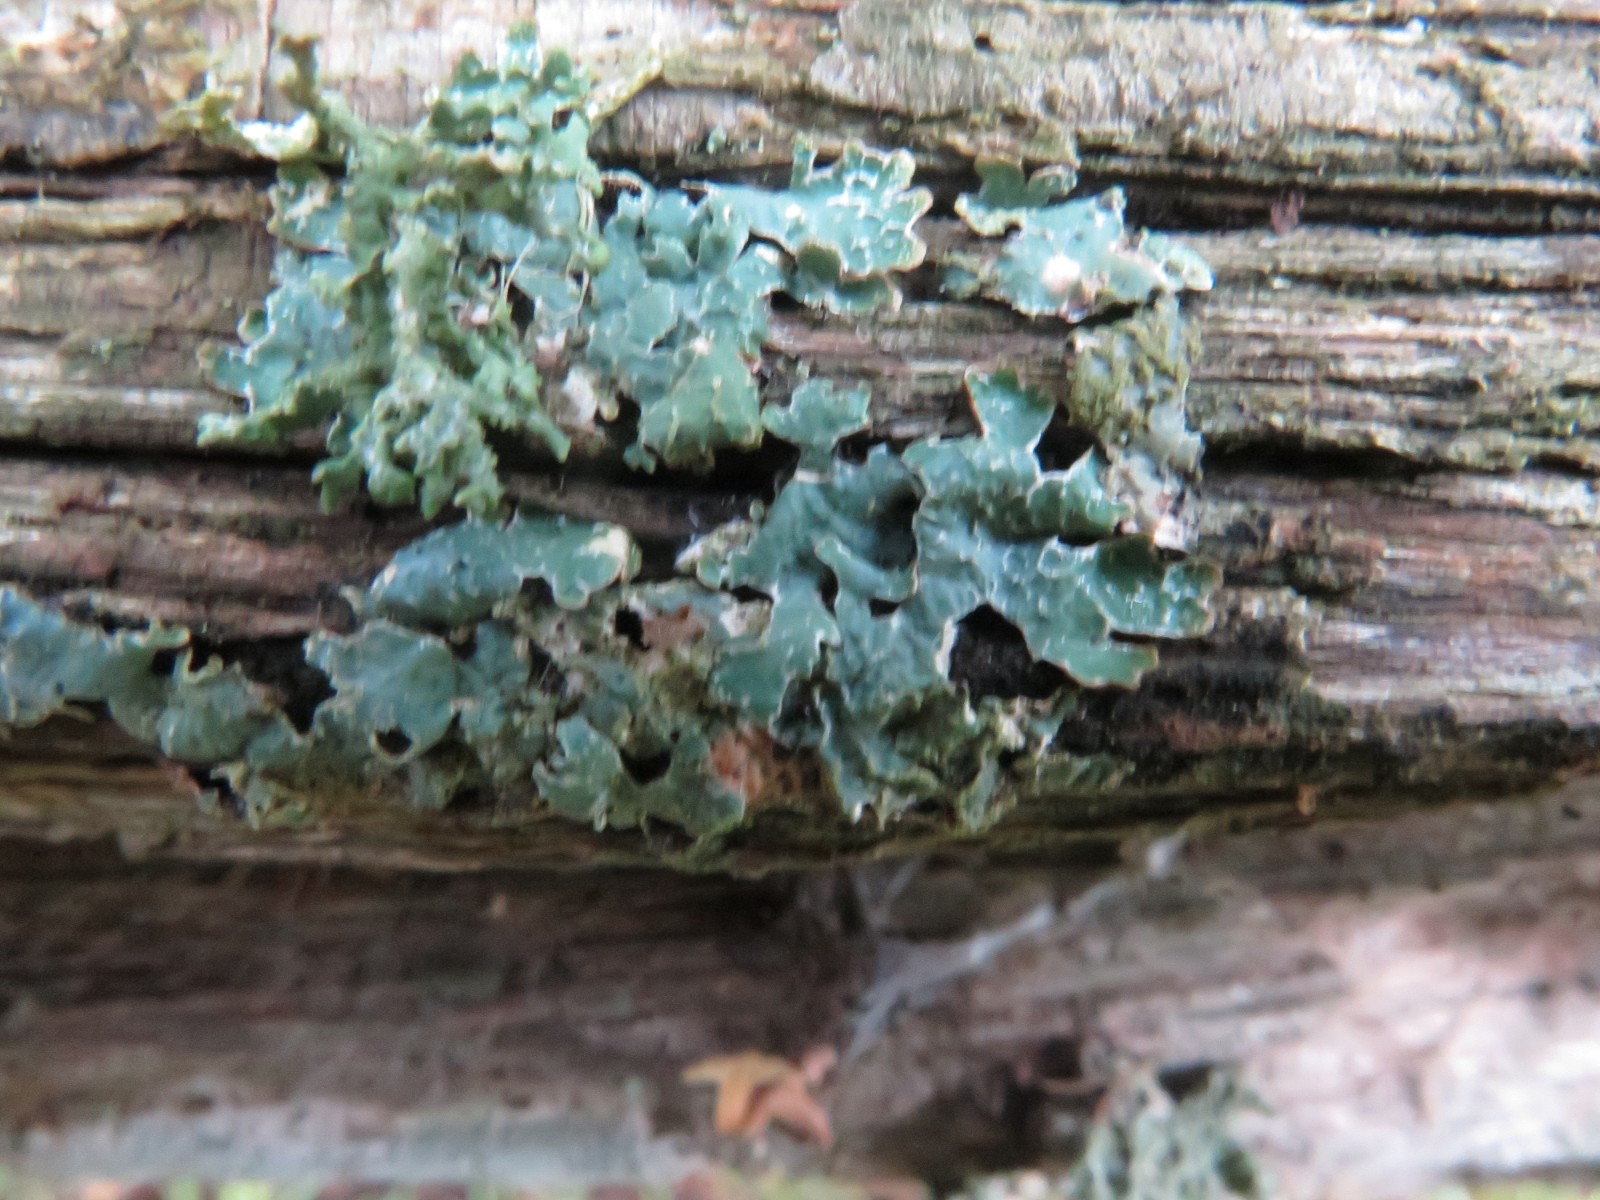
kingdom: Fungi
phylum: Ascomycota
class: Lecanoromycetes
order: Lecanorales
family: Parmeliaceae
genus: Parmelia
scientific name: Parmelia sulcata
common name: rynket skållav
